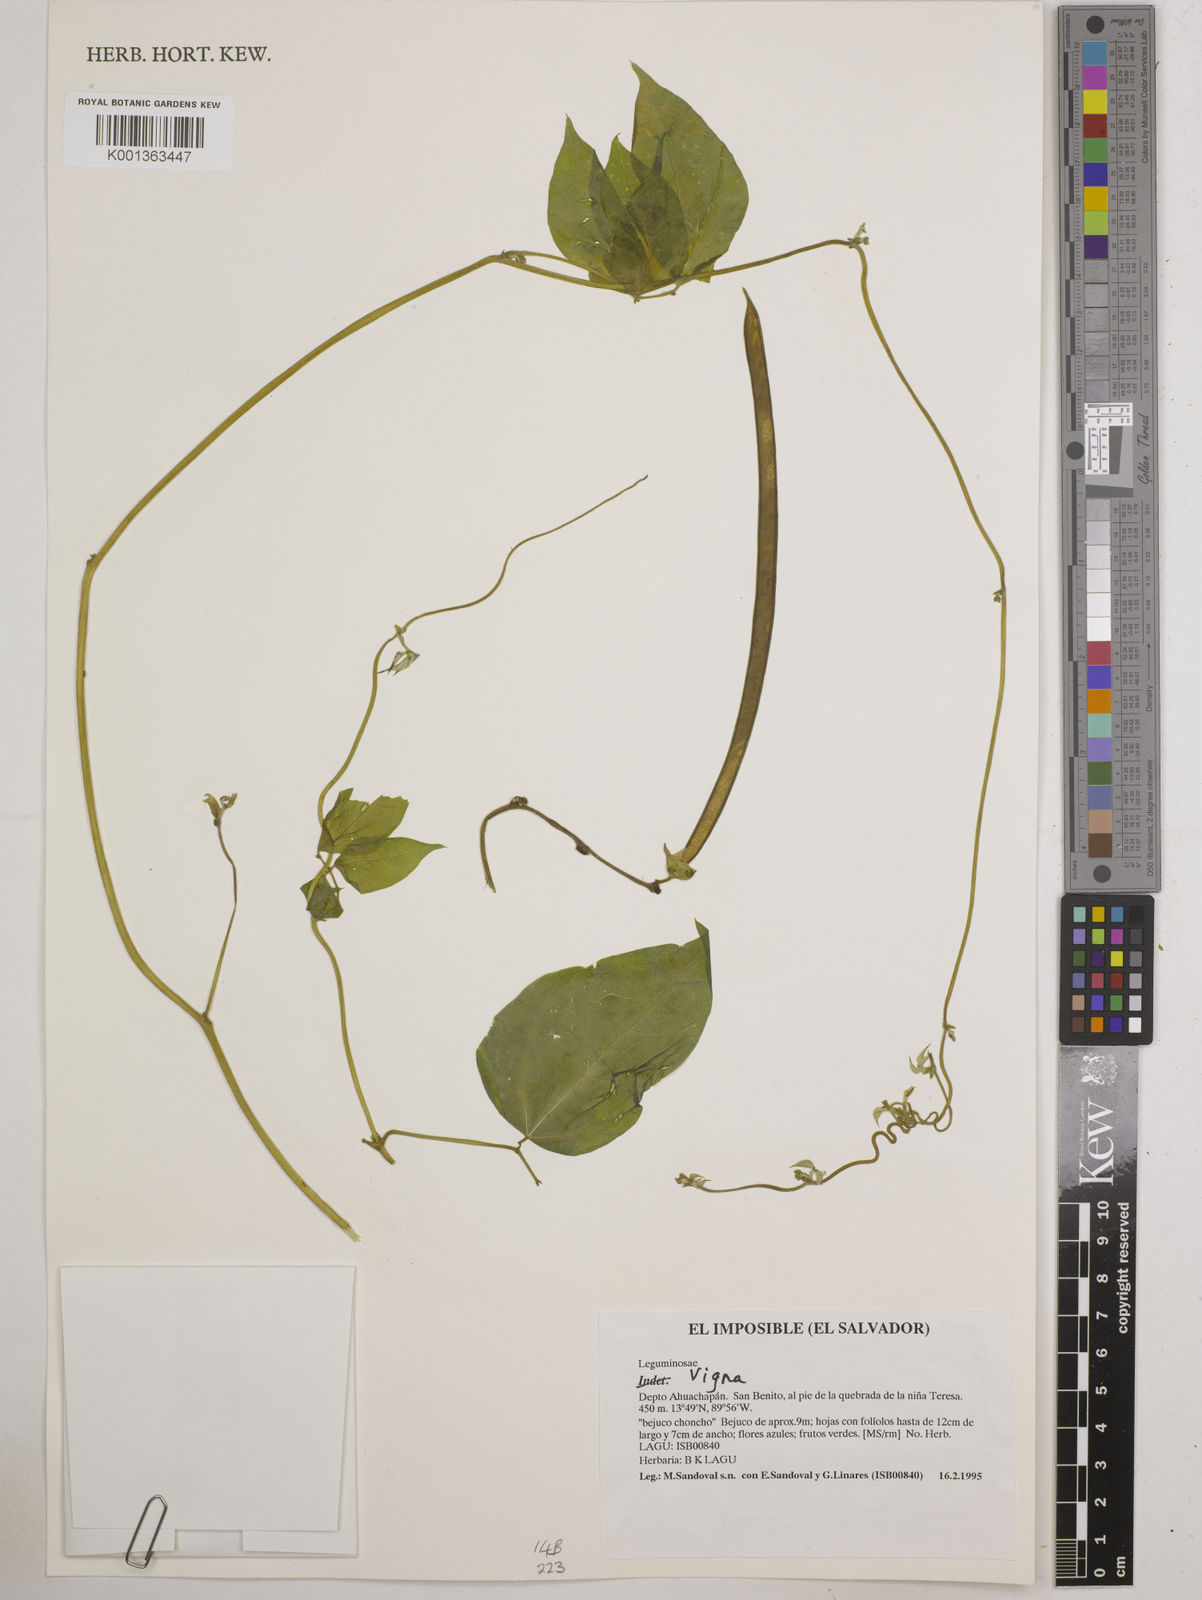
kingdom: Plantae
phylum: Tracheophyta
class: Magnoliopsida
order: Fabales
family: Fabaceae
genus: Vigna
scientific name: Vigna
